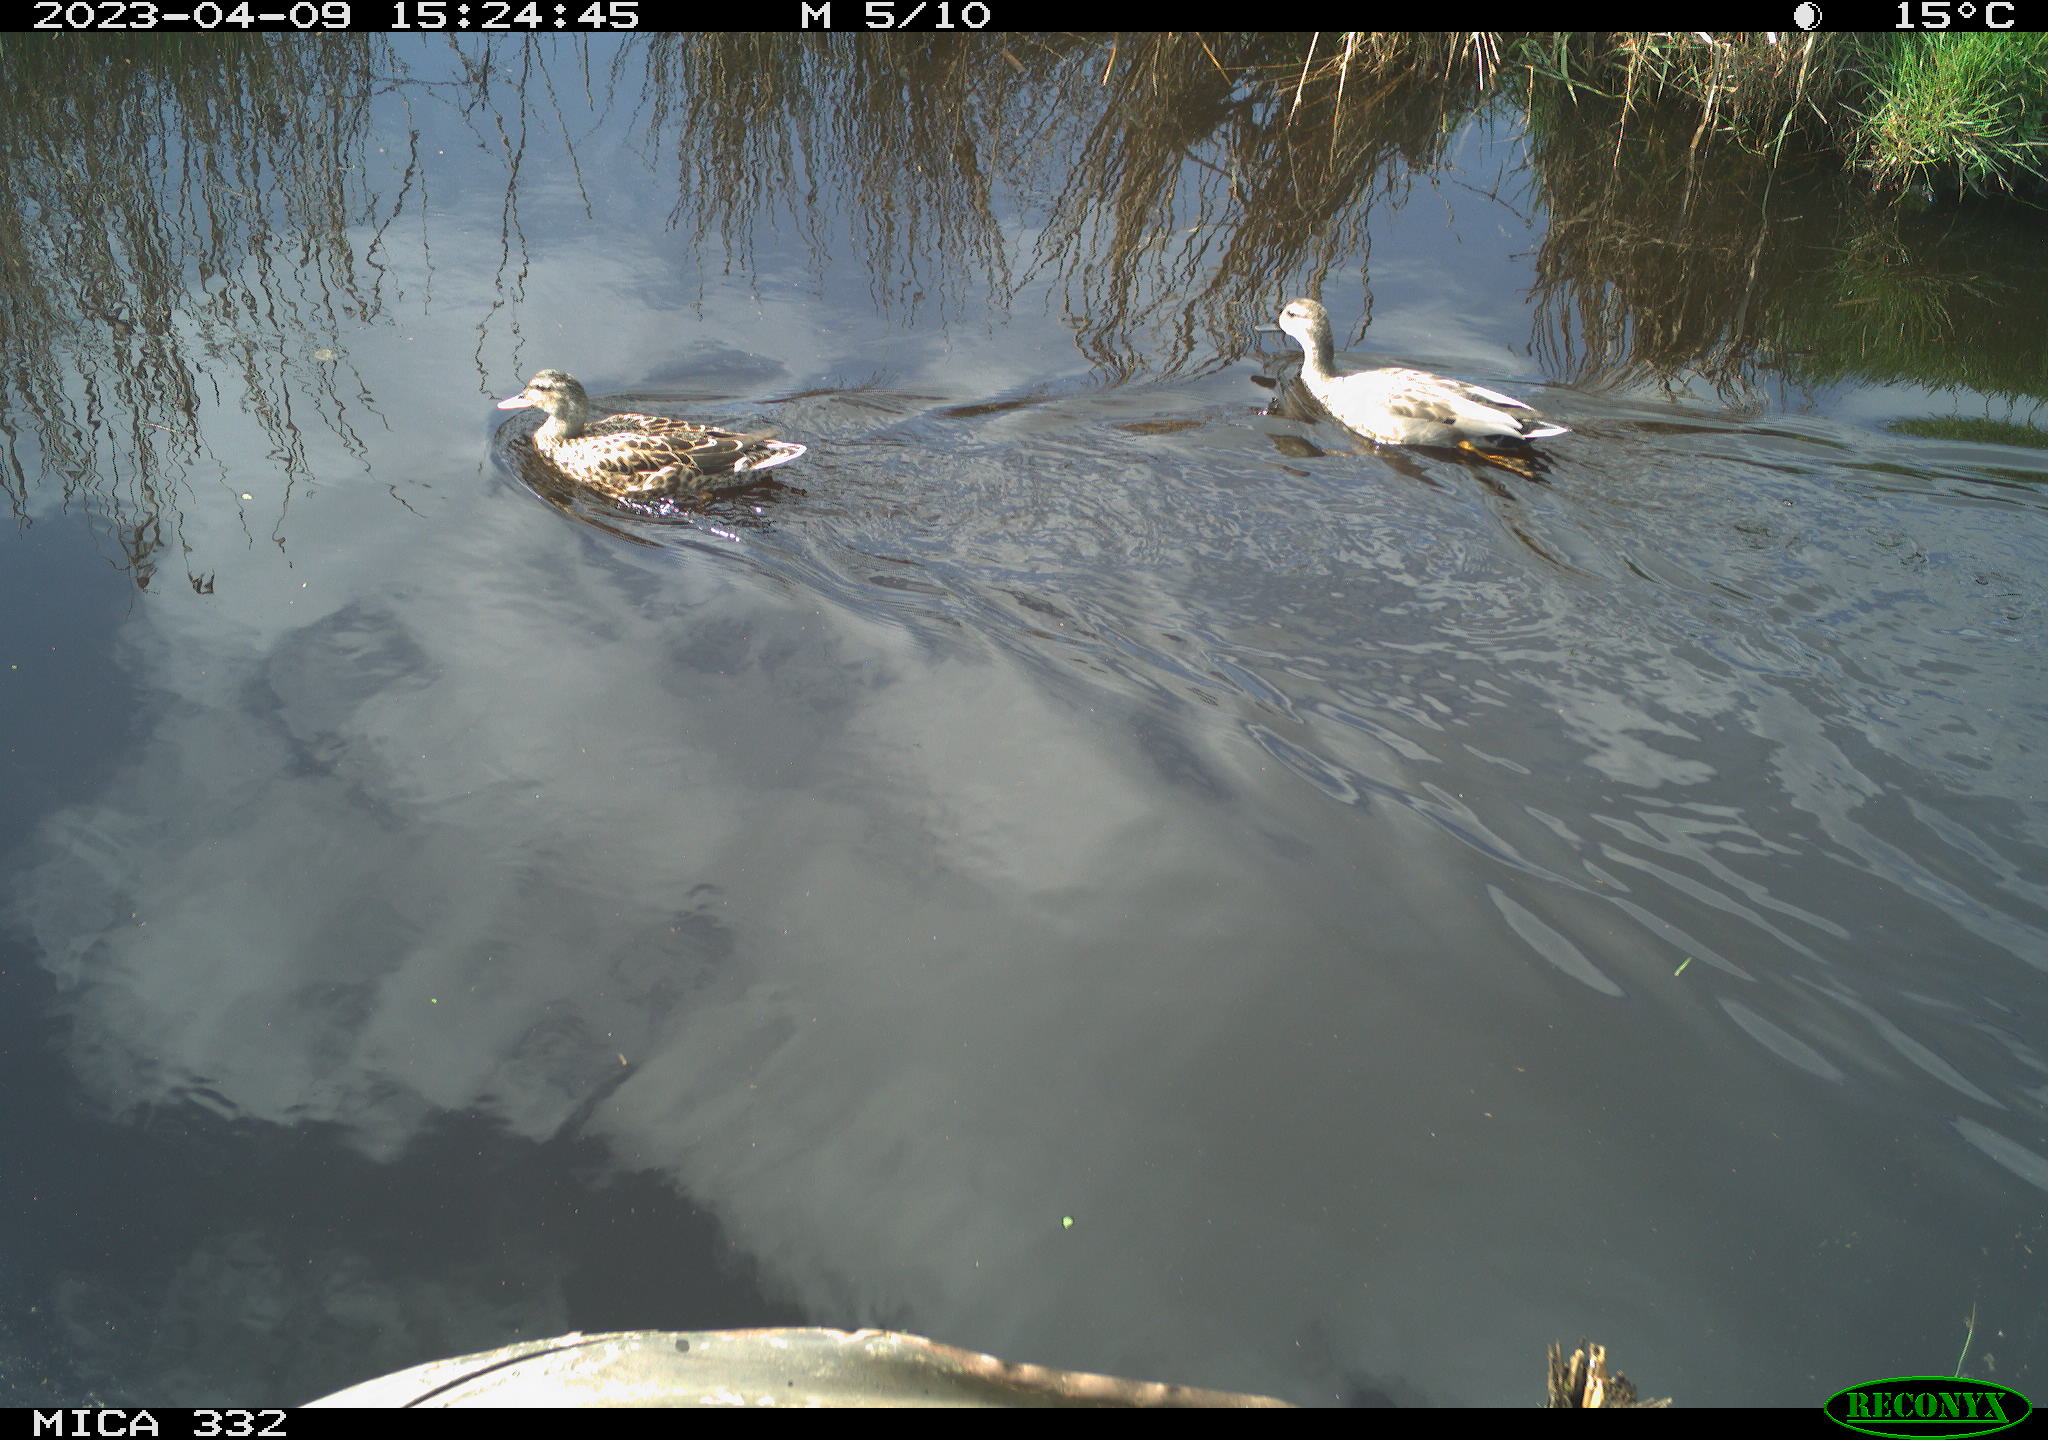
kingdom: Animalia
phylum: Chordata
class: Aves
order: Anseriformes
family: Anatidae
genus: Anas
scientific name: Anas platyrhynchos
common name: Mallard
